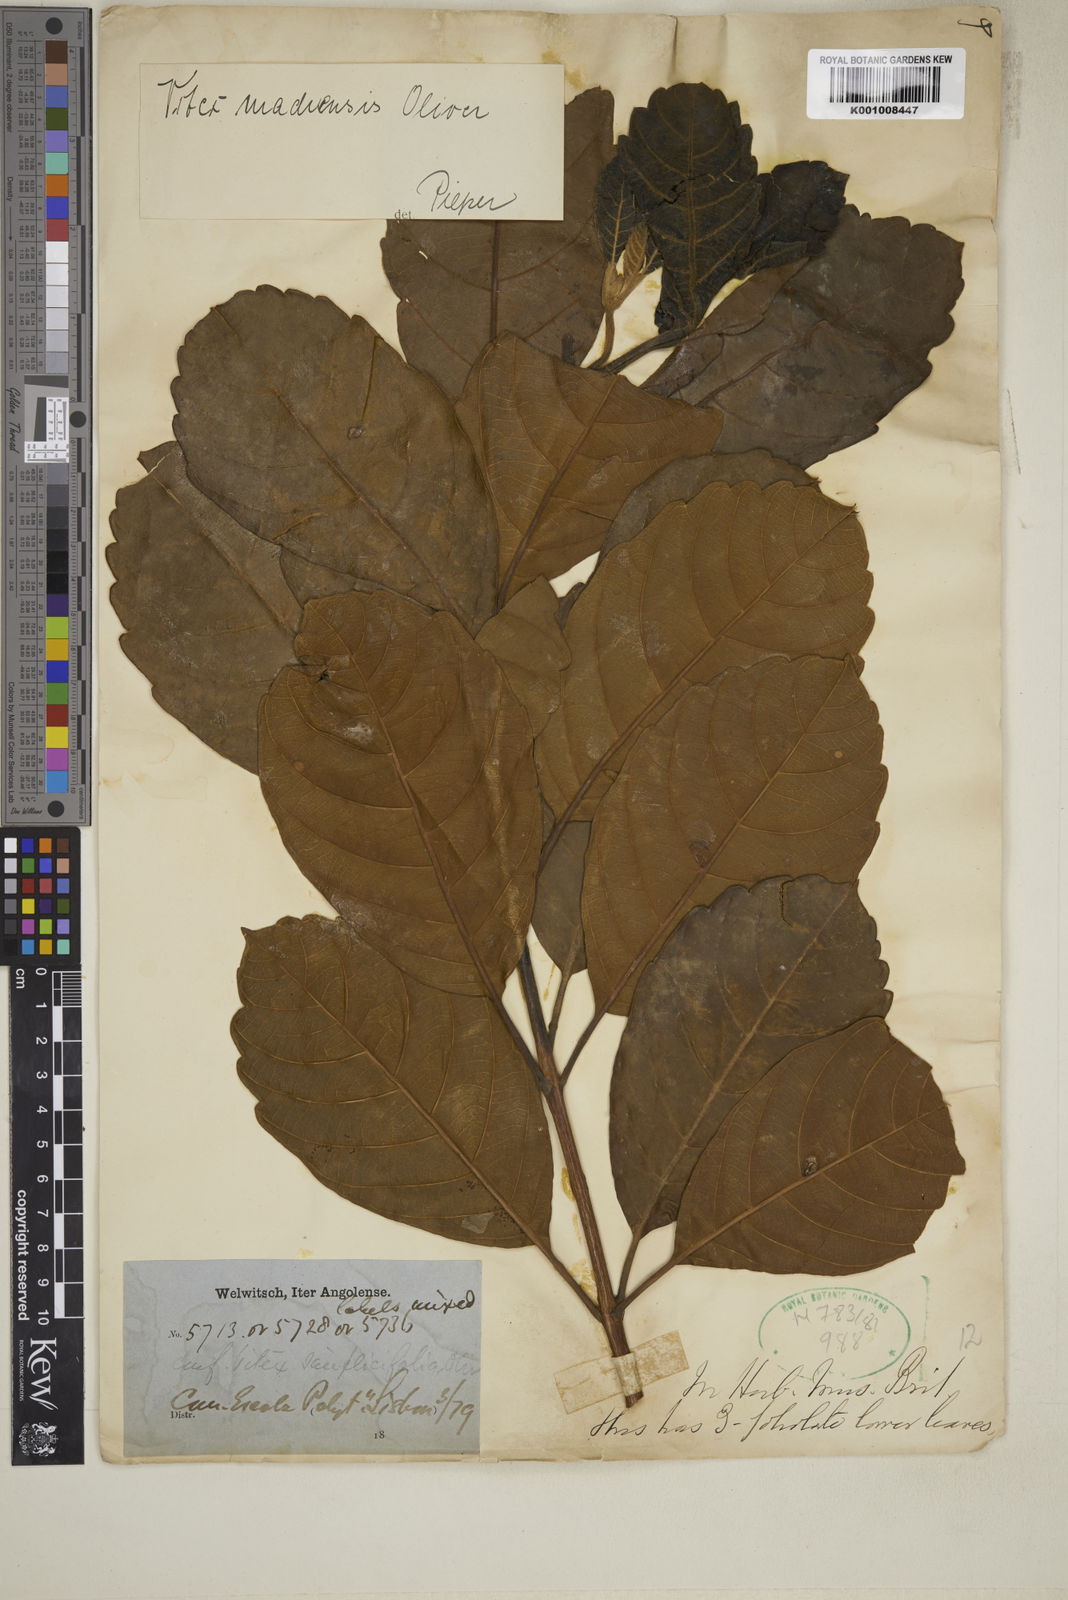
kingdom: Plantae
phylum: Tracheophyta
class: Magnoliopsida
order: Lamiales
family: Lamiaceae
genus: Vitex
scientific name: Vitex madiensis
